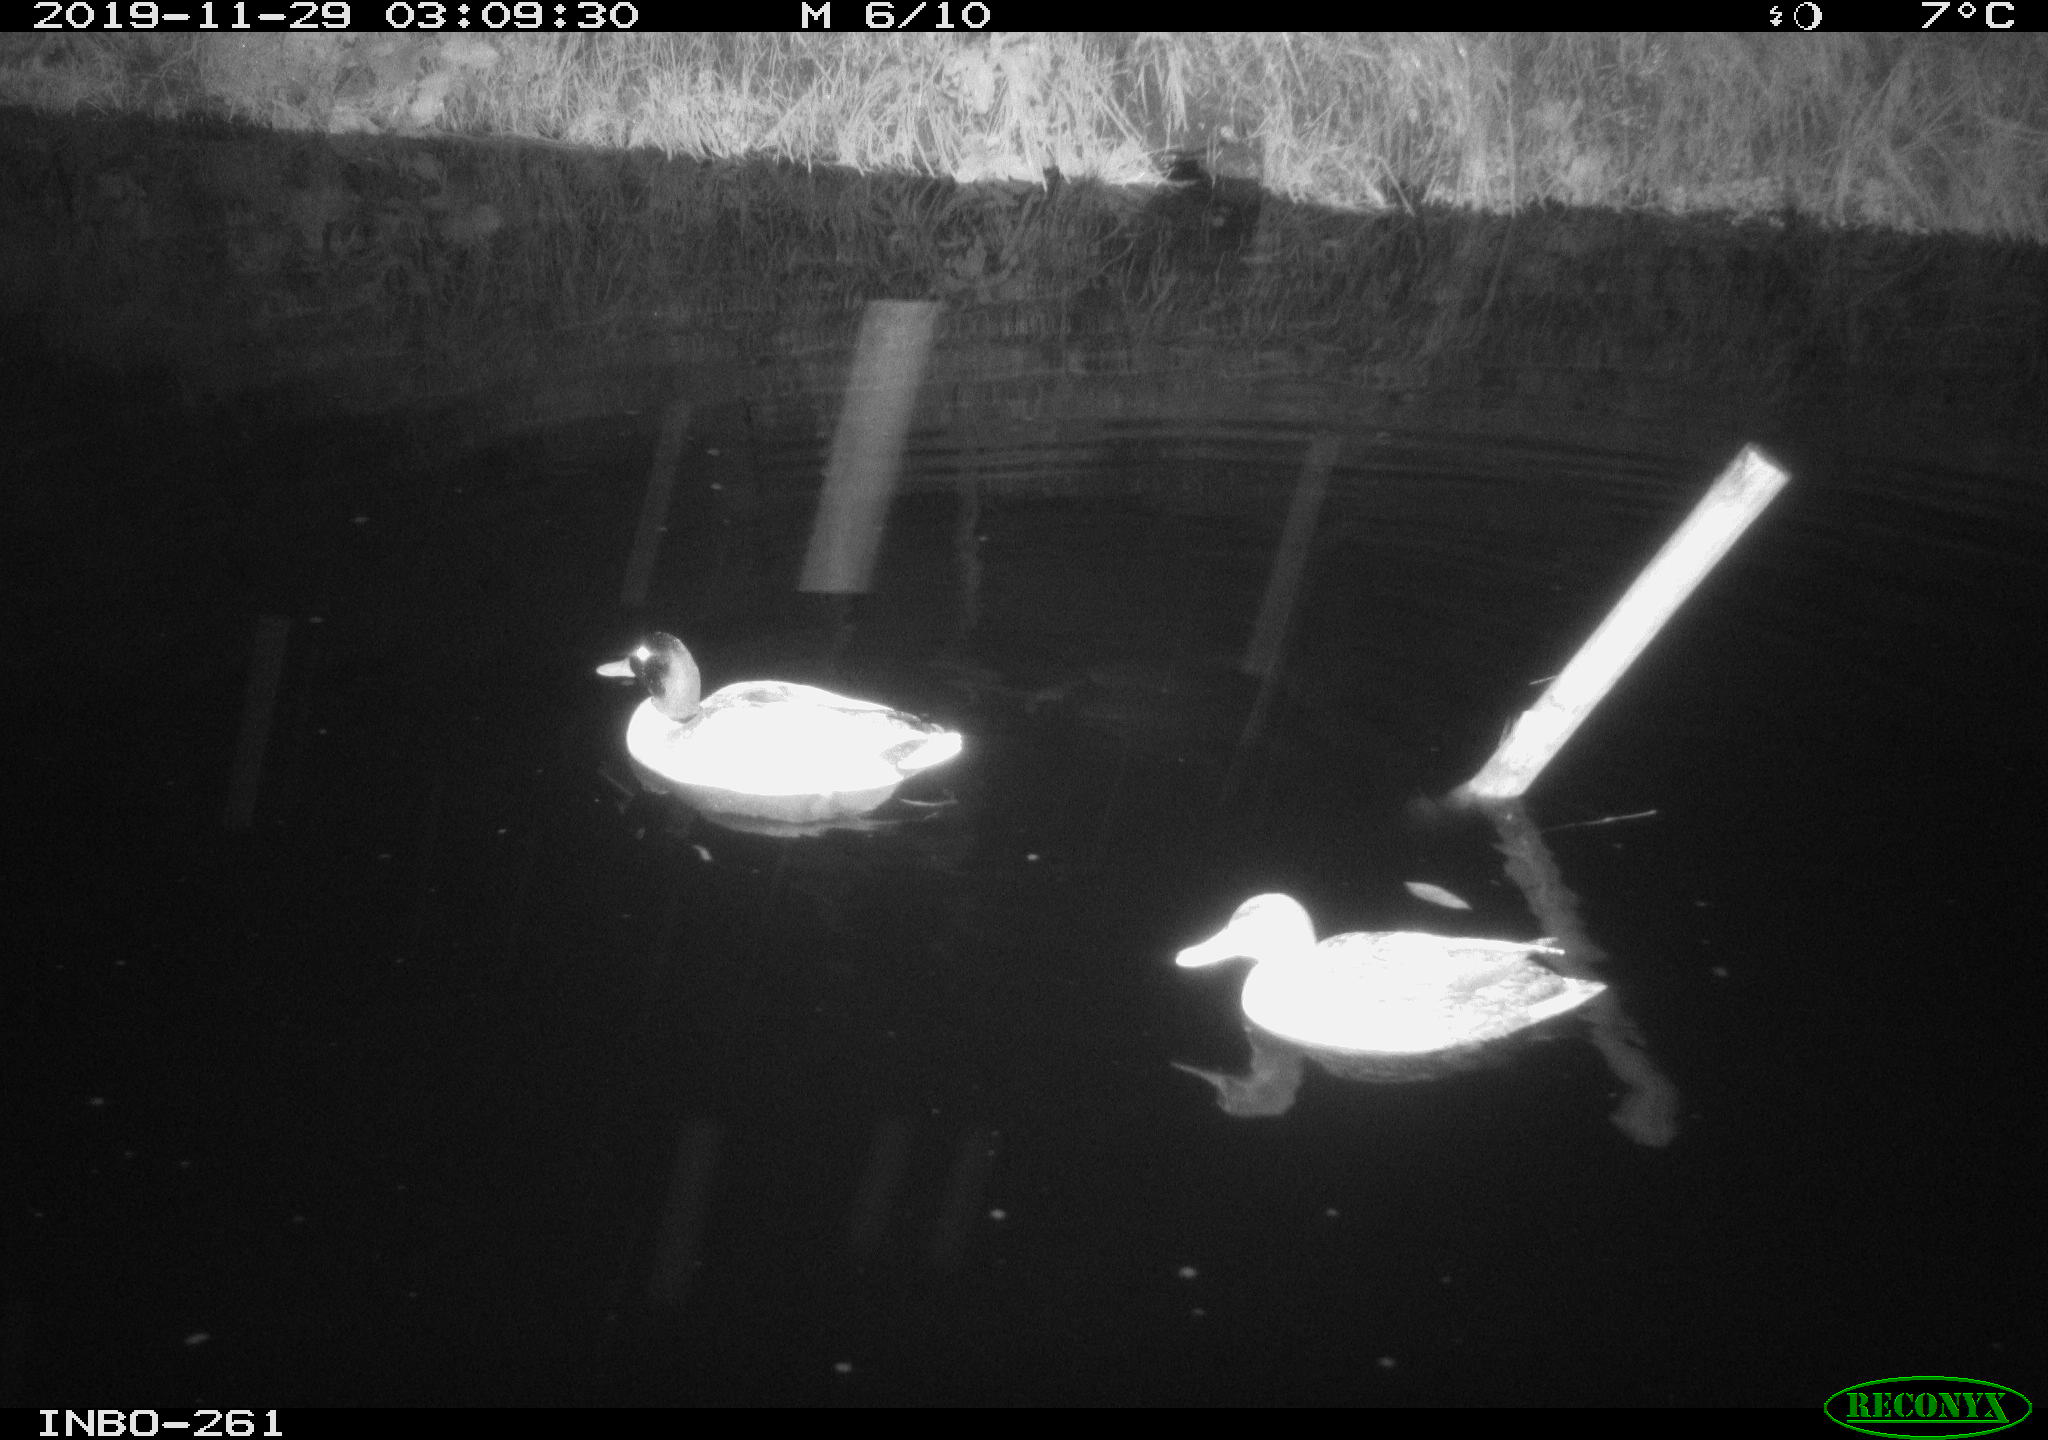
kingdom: Animalia
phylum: Chordata
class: Aves
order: Anseriformes
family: Anatidae
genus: Anas
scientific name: Anas platyrhynchos
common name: Mallard
